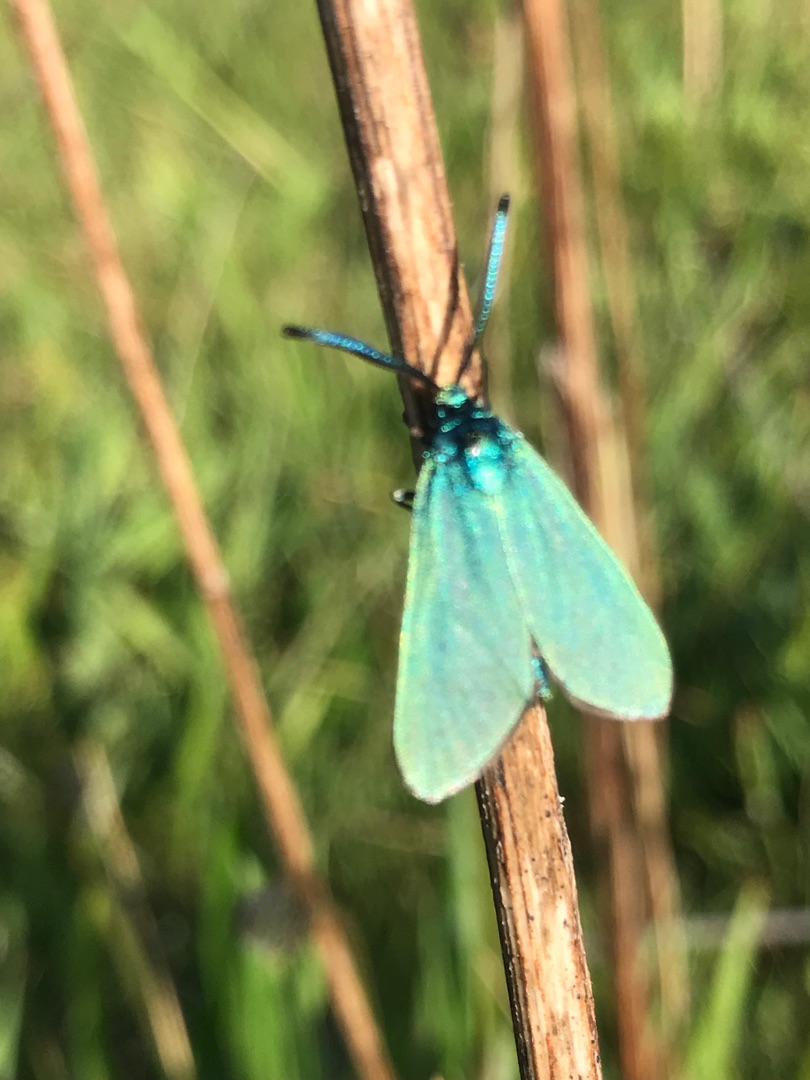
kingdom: Animalia
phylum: Arthropoda
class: Insecta
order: Lepidoptera
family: Zygaenidae
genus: Adscita
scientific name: Adscita statices
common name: Metalvinge
